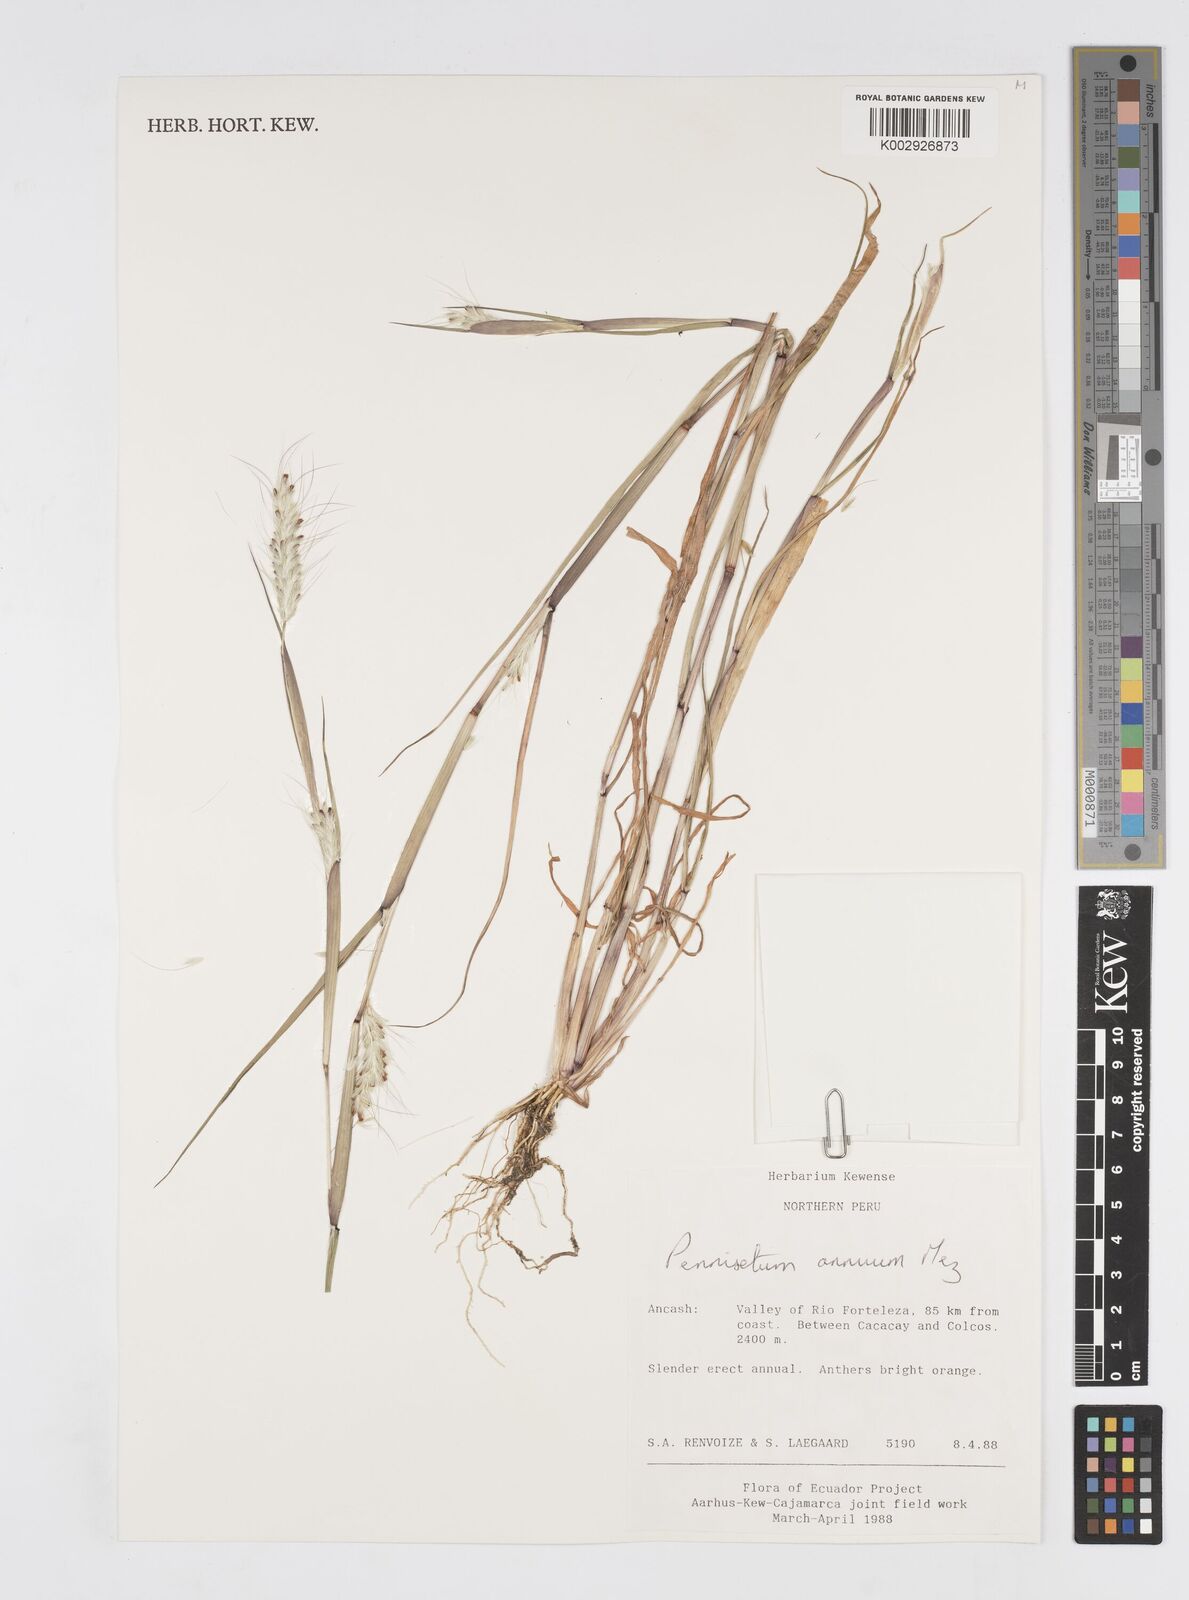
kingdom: Plantae
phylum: Tracheophyta
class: Liliopsida
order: Poales
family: Poaceae
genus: Cenchrus
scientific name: Cenchrus annuus
